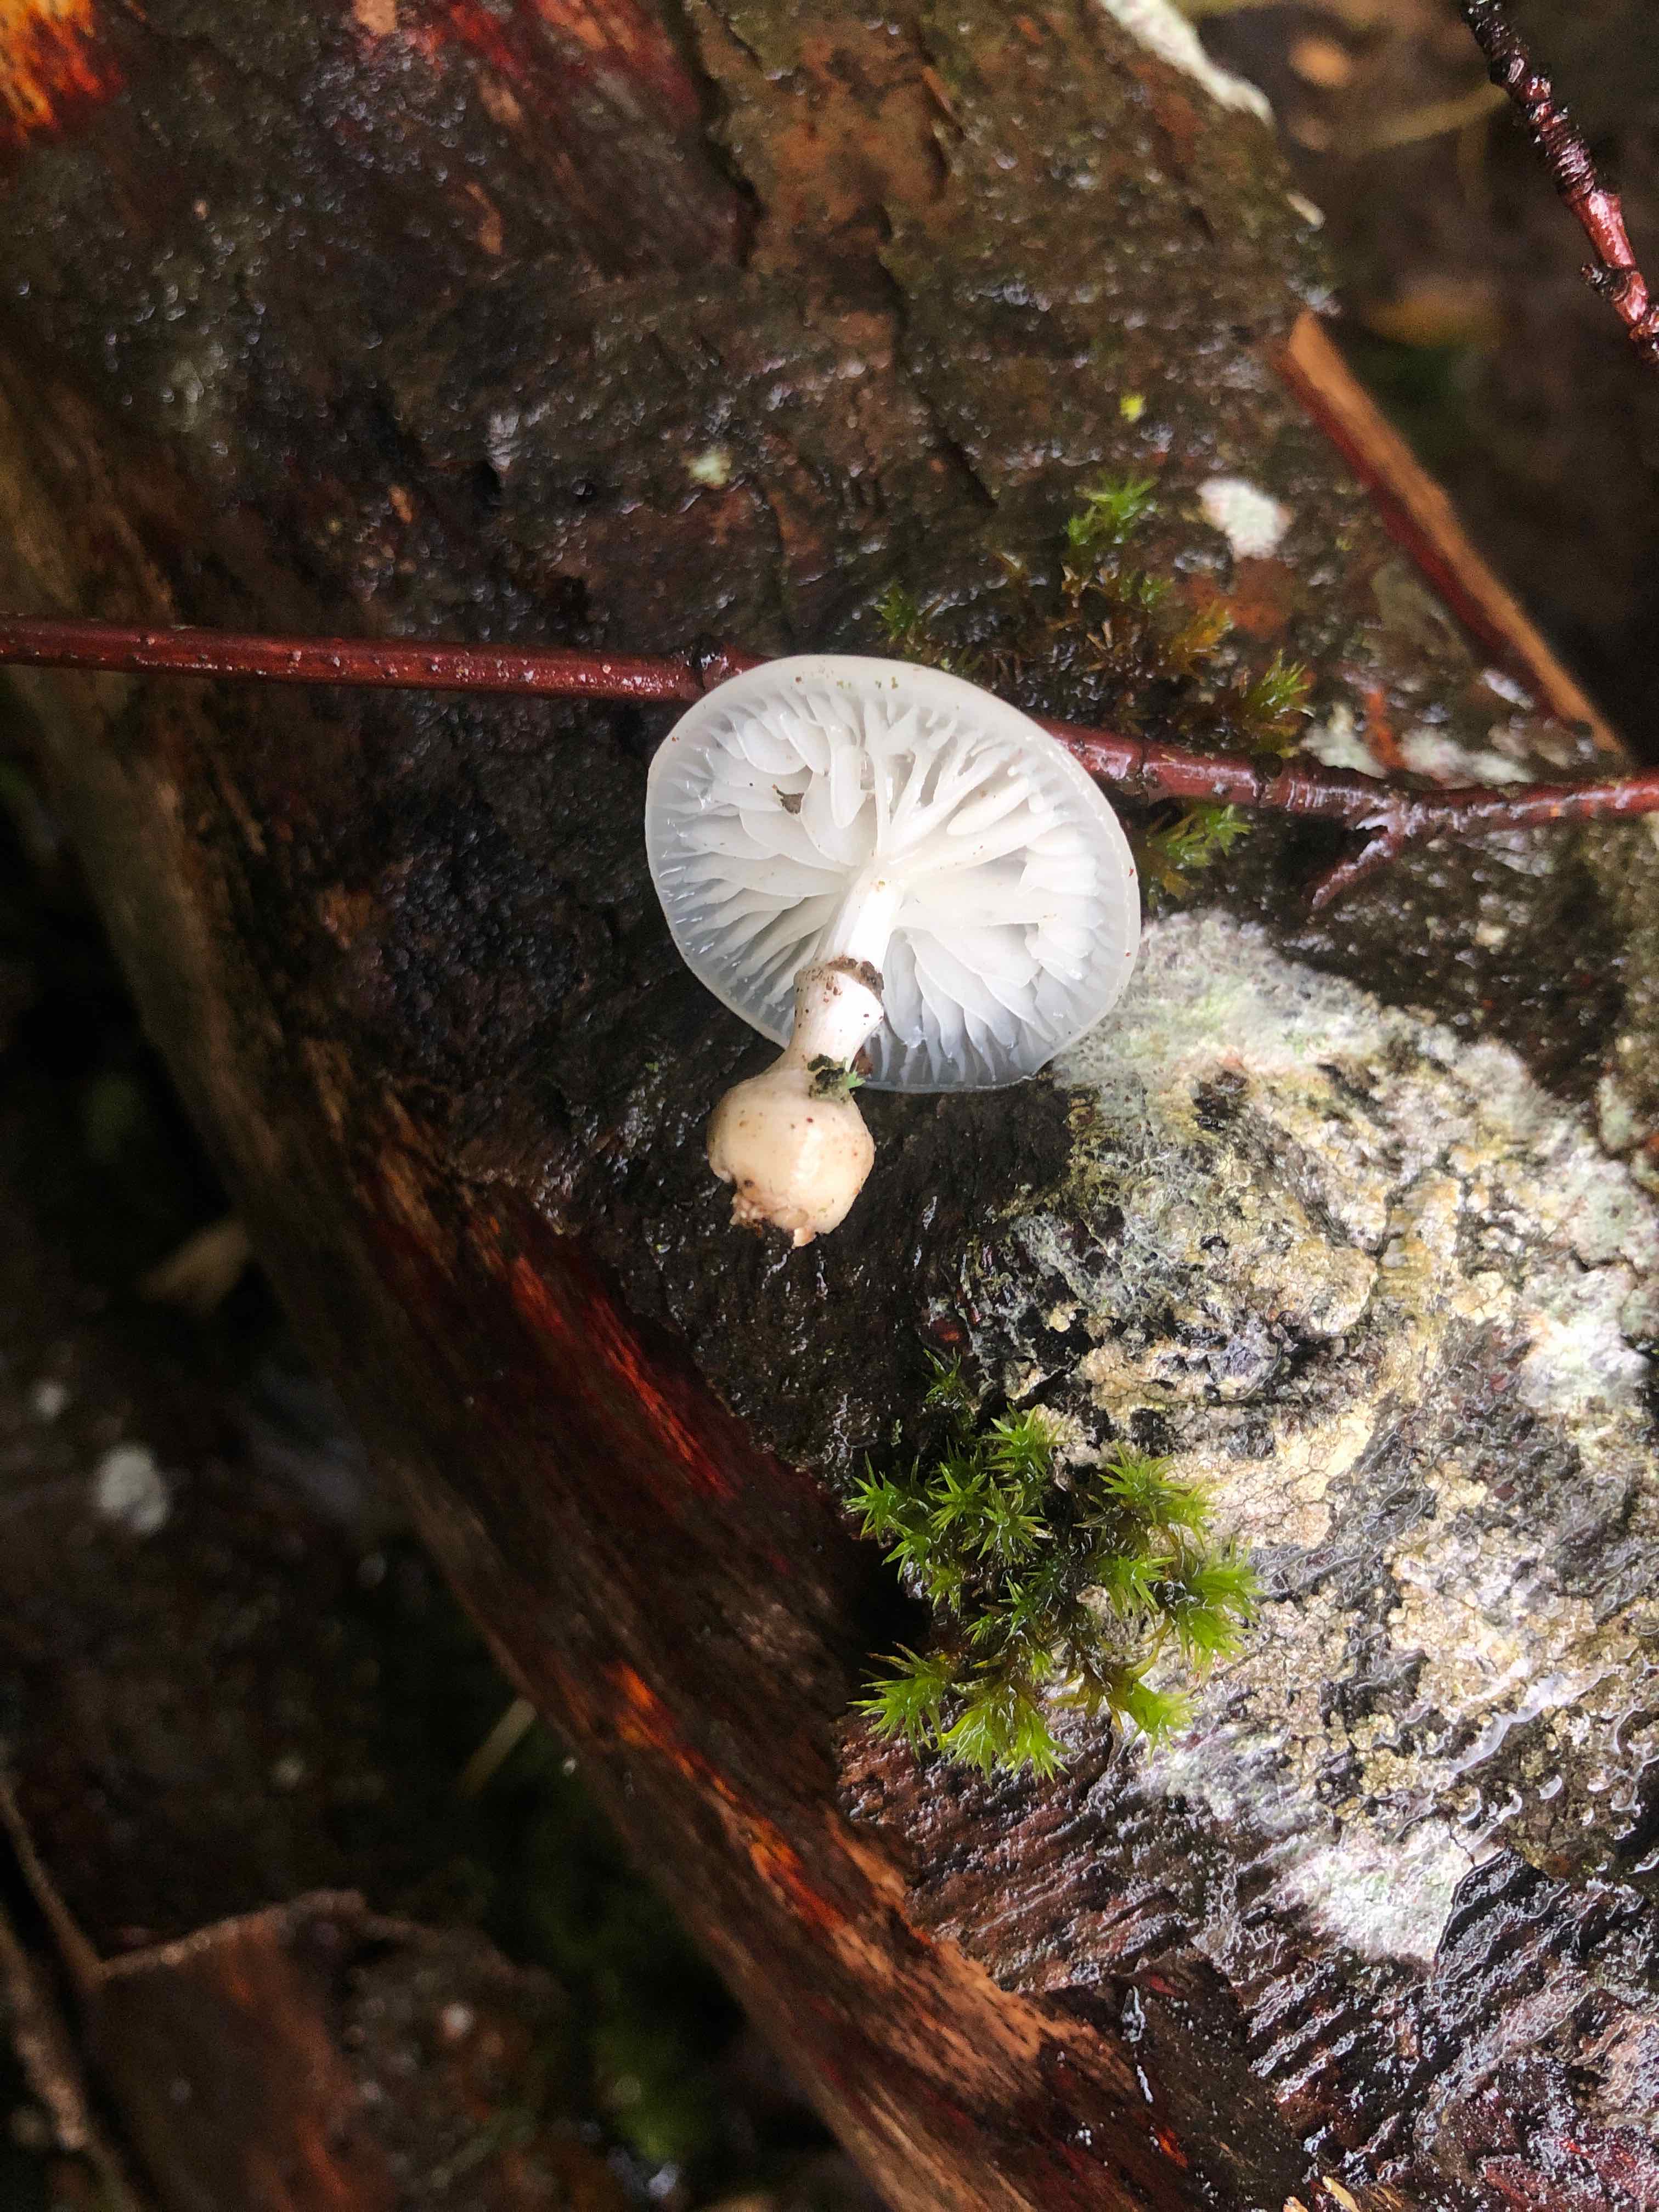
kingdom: Fungi
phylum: Basidiomycota
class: Agaricomycetes
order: Agaricales
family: Physalacriaceae
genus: Mucidula
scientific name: Mucidula mucida
